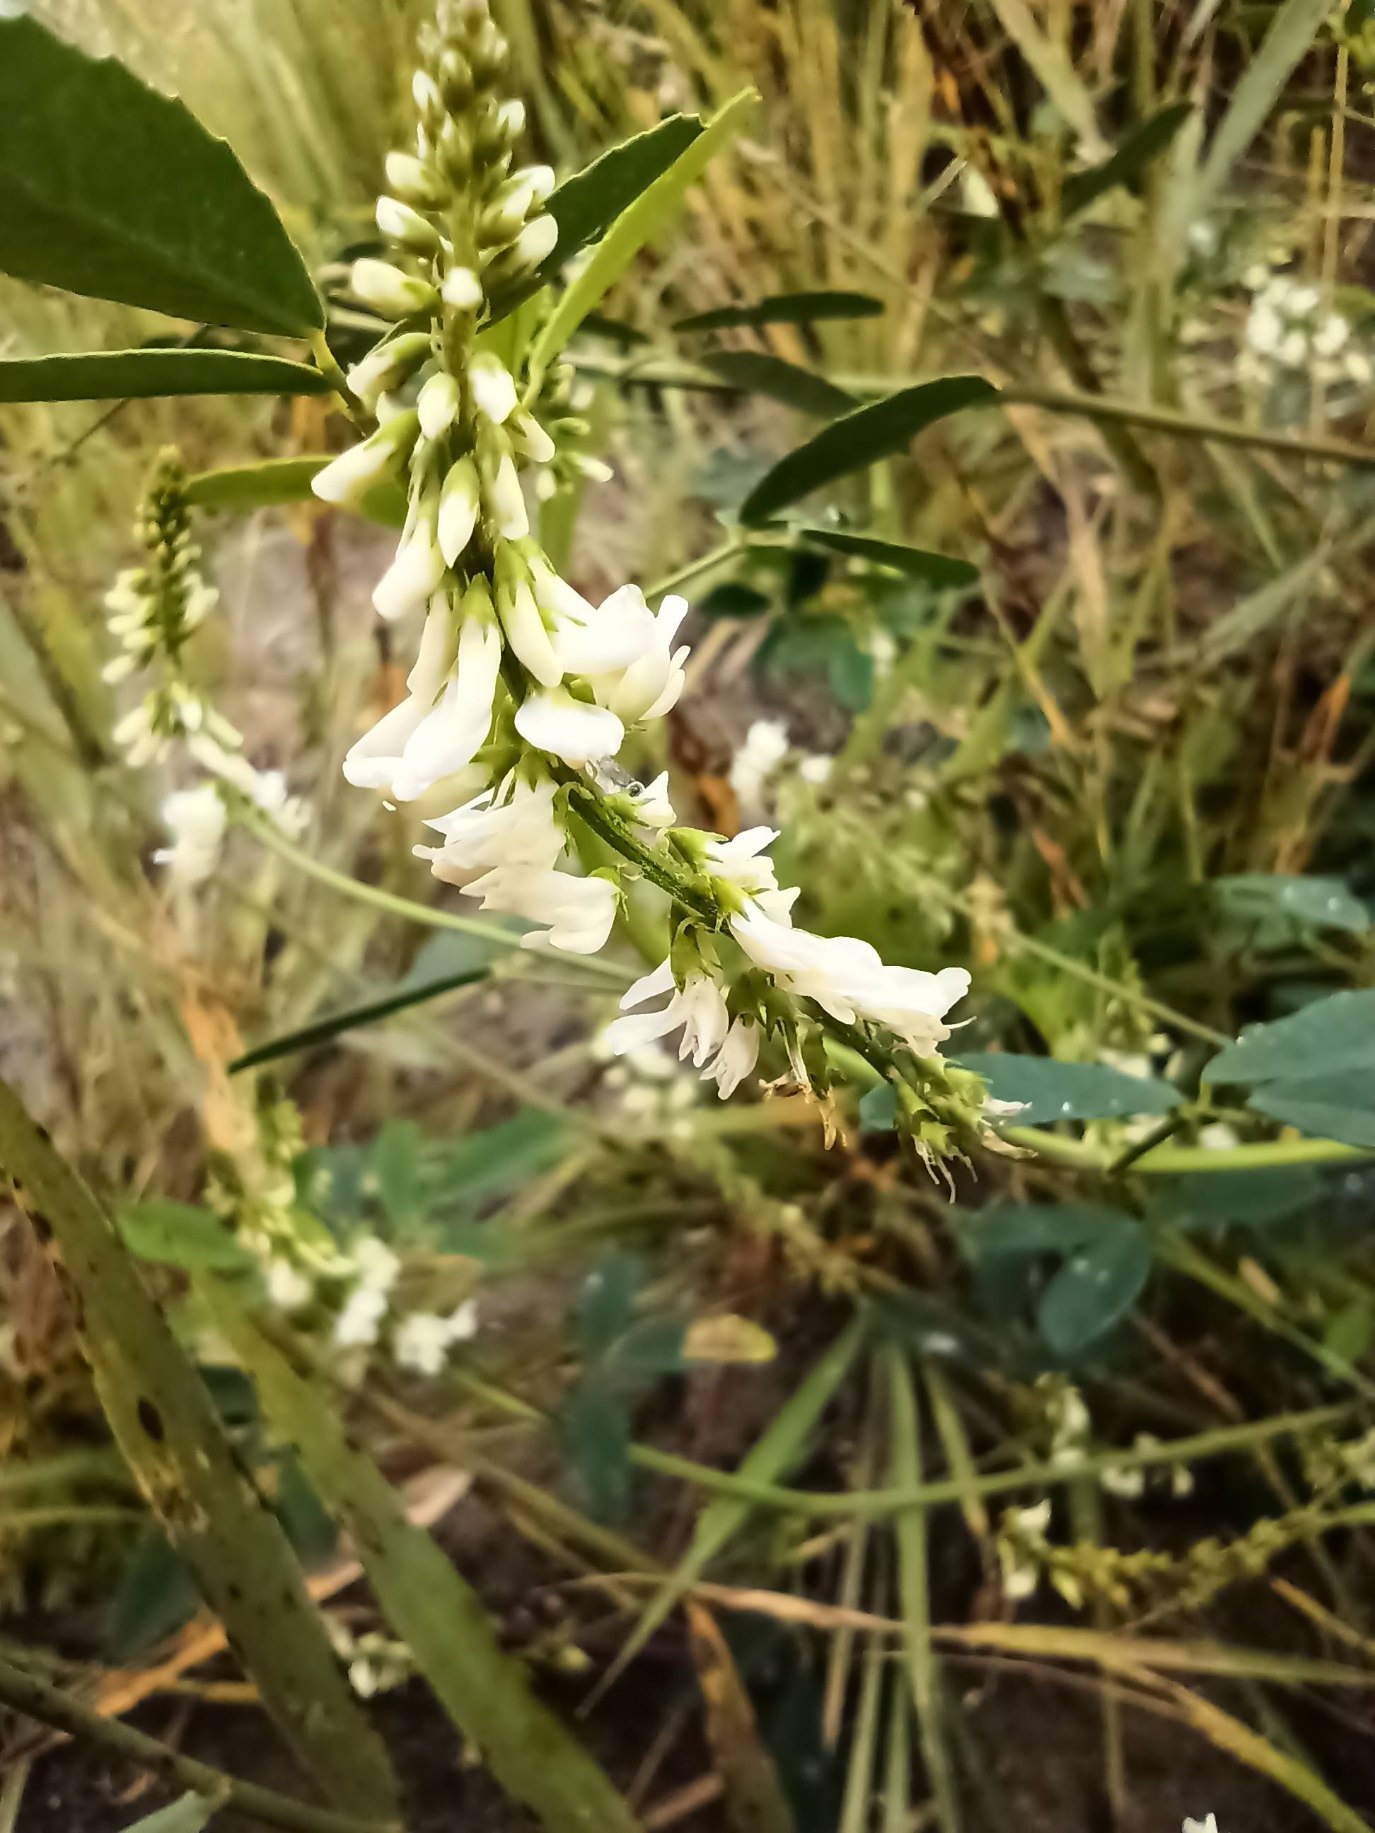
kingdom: Plantae
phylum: Tracheophyta
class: Magnoliopsida
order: Fabales
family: Fabaceae
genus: Melilotus
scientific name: Melilotus albus
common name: Hvid stenkløver
